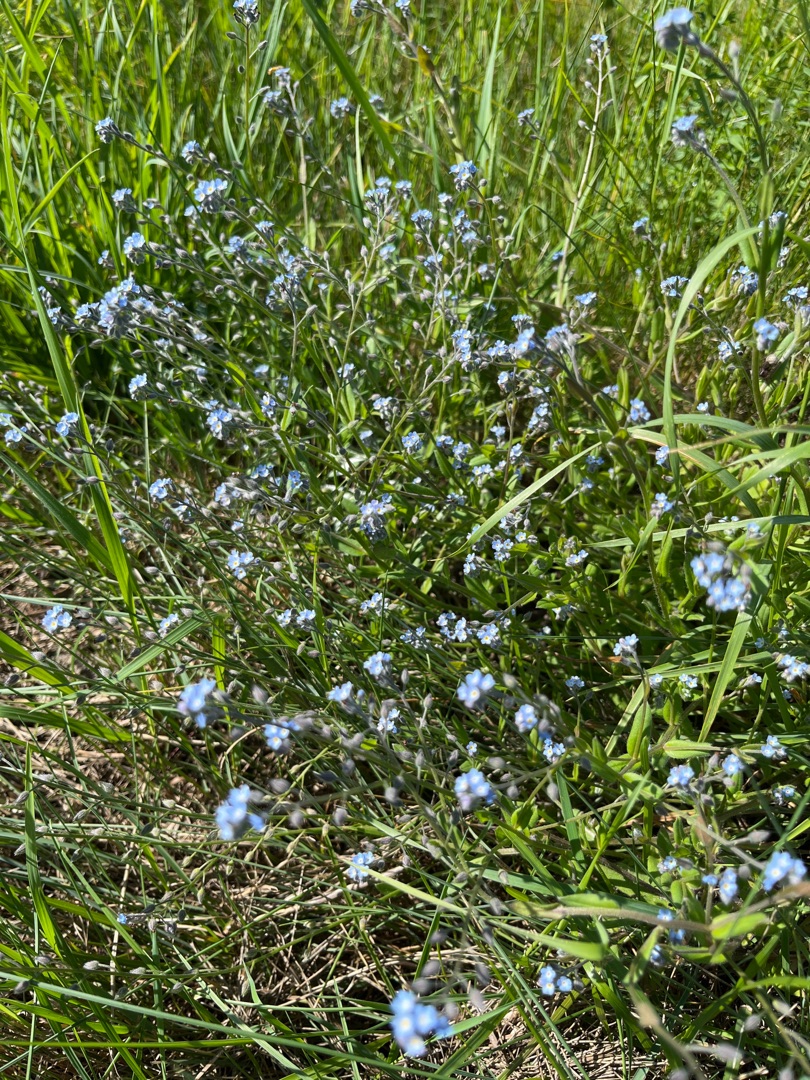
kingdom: Plantae
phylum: Tracheophyta
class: Magnoliopsida
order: Boraginales
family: Boraginaceae
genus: Myosotis
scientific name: Myosotis arvensis
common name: Mark-forglemmigej
